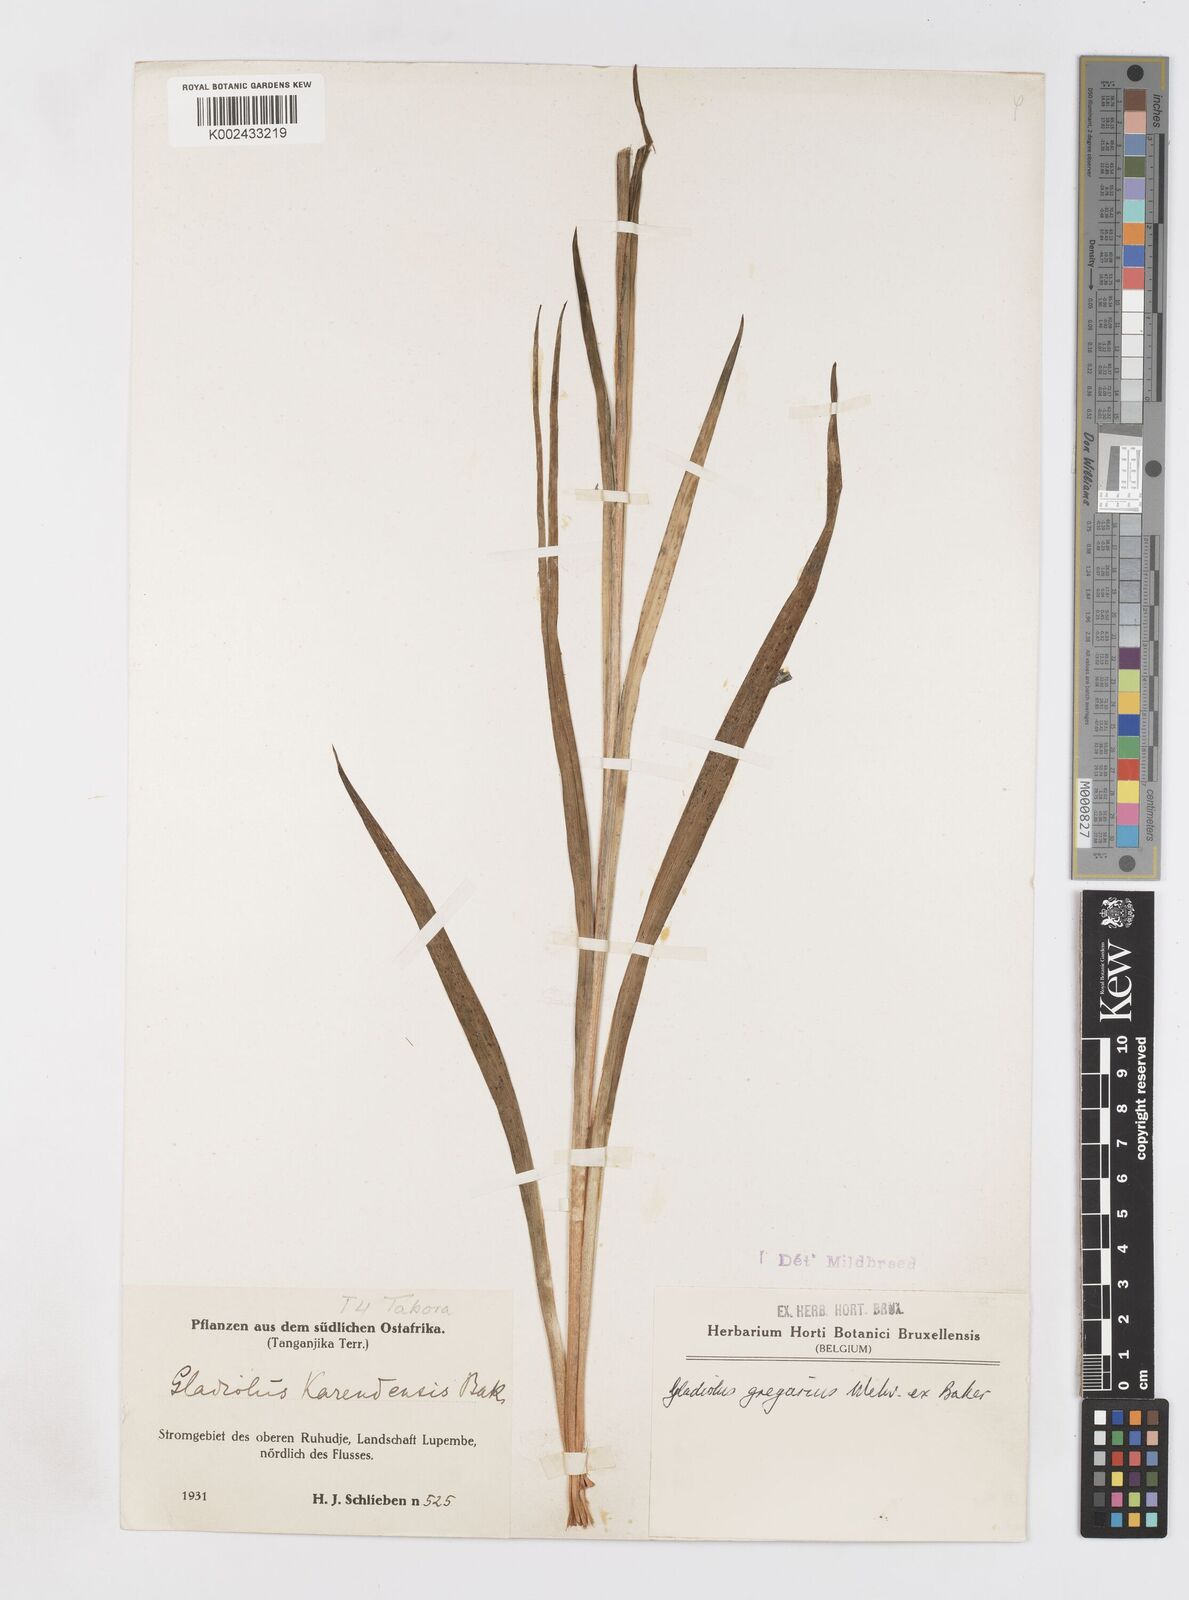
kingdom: Plantae
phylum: Tracheophyta
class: Liliopsida
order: Asparagales
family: Iridaceae
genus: Gladiolus
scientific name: Gladiolus gregarius
